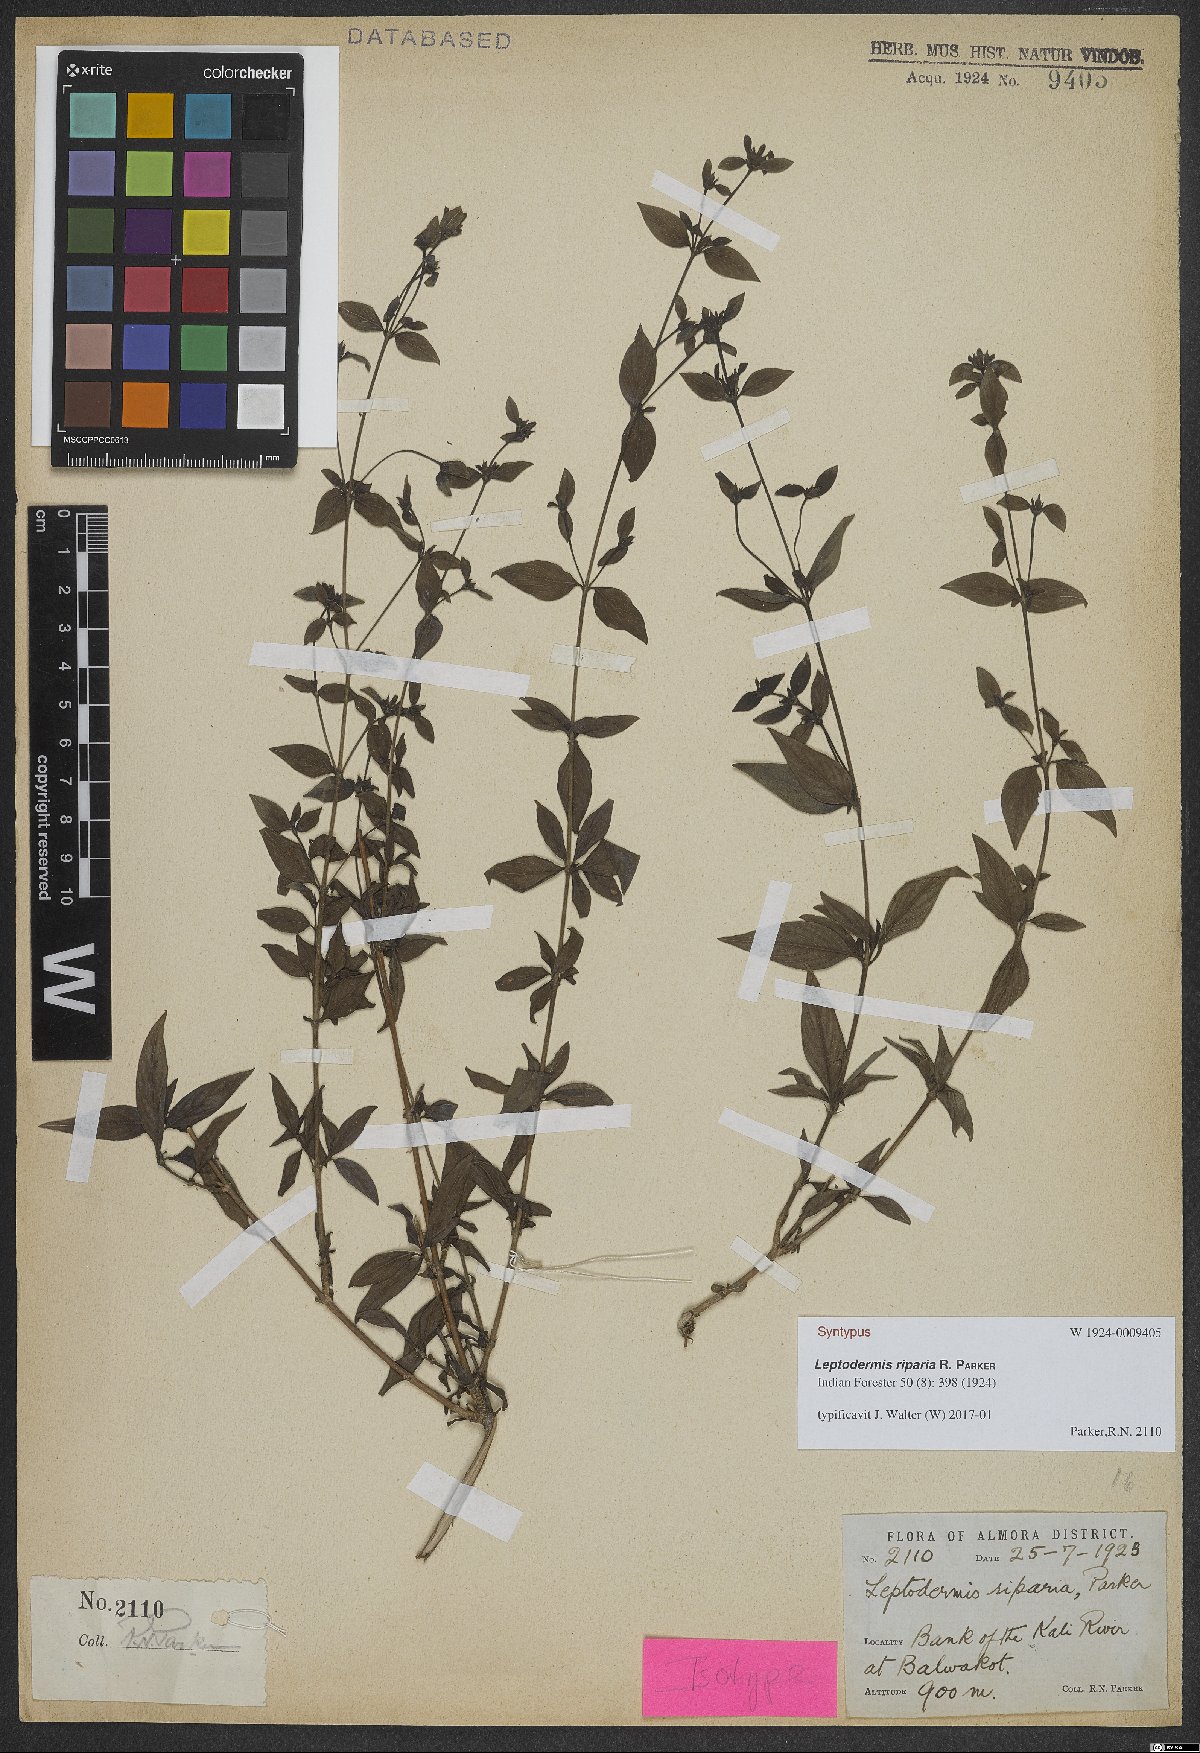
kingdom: Plantae
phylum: Tracheophyta
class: Magnoliopsida
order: Gentianales
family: Rubiaceae
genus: Leptodermis
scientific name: Leptodermis riparia
